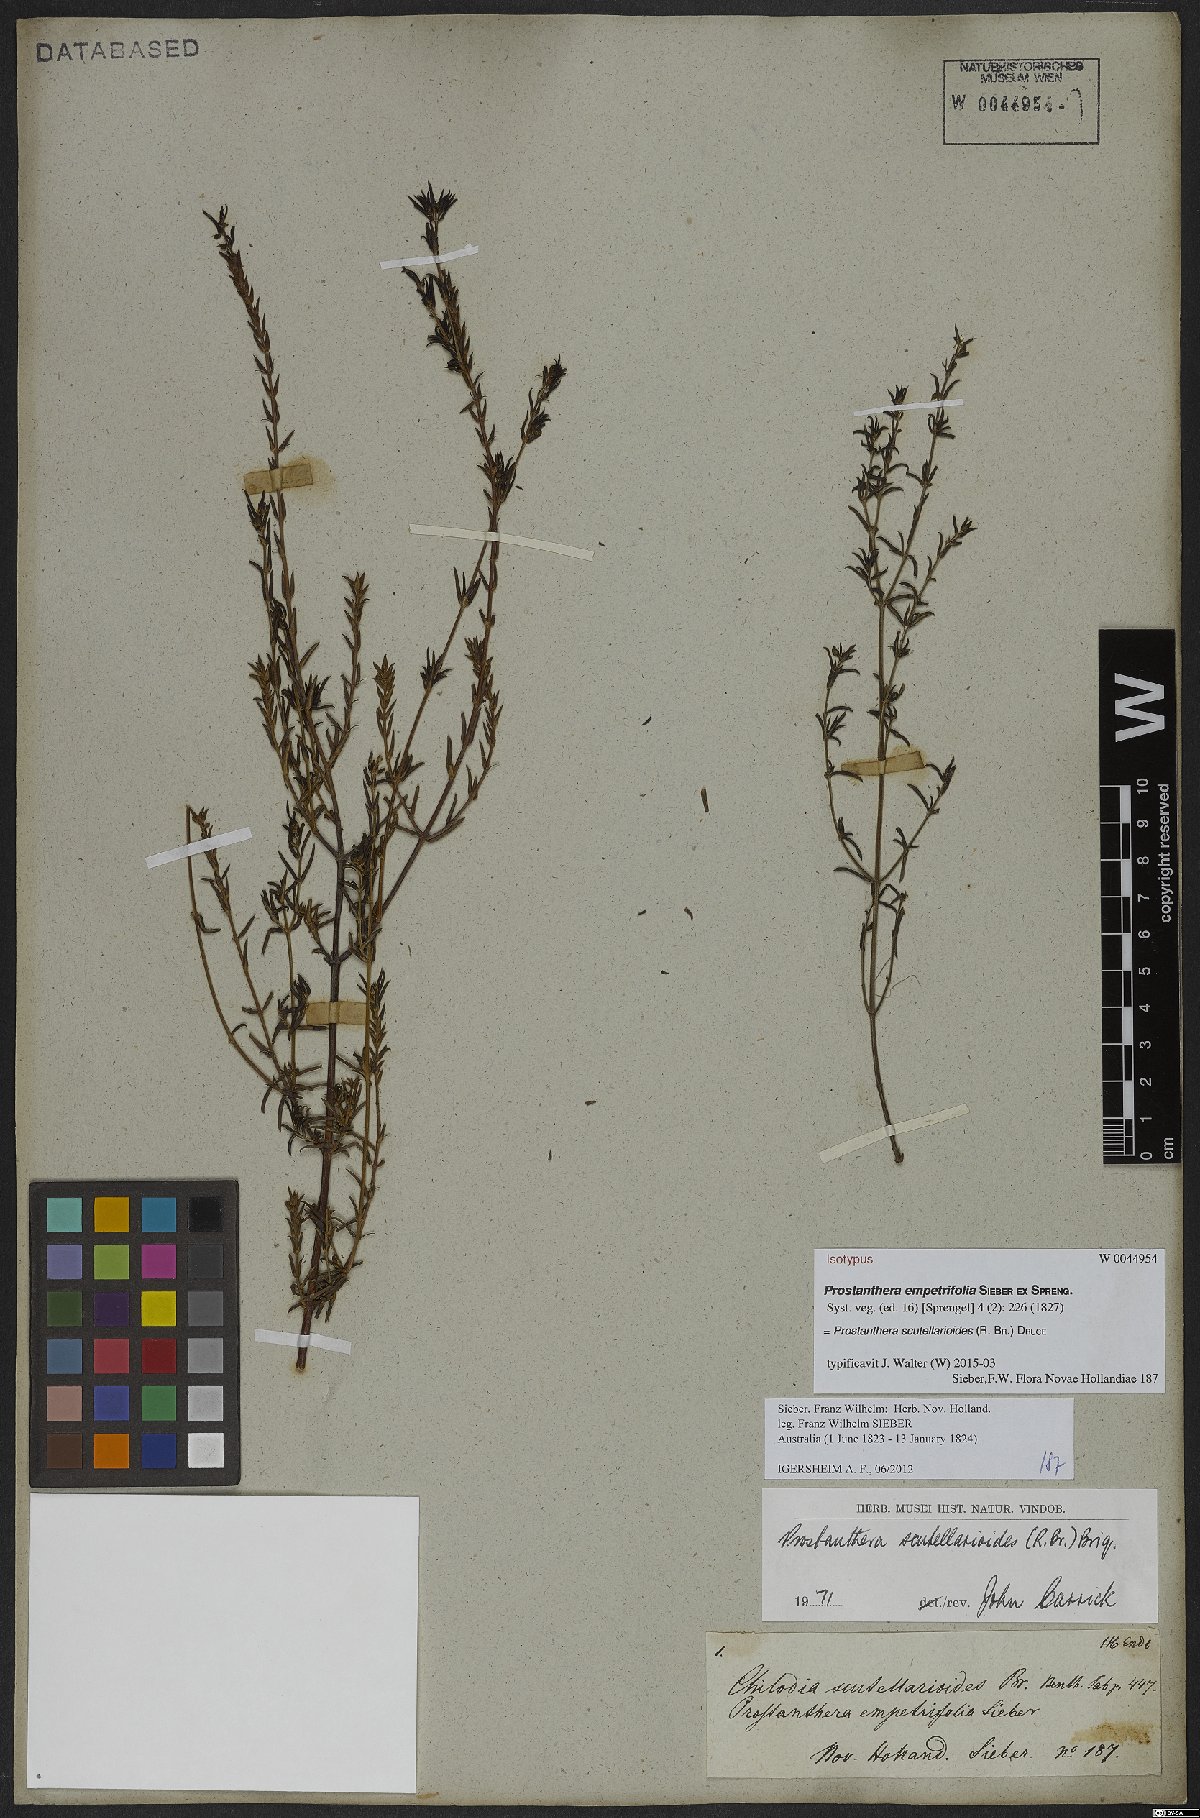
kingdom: Plantae
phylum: Tracheophyta
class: Magnoliopsida
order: Lamiales
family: Lamiaceae
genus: Prostanthera
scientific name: Prostanthera scutellarioides
